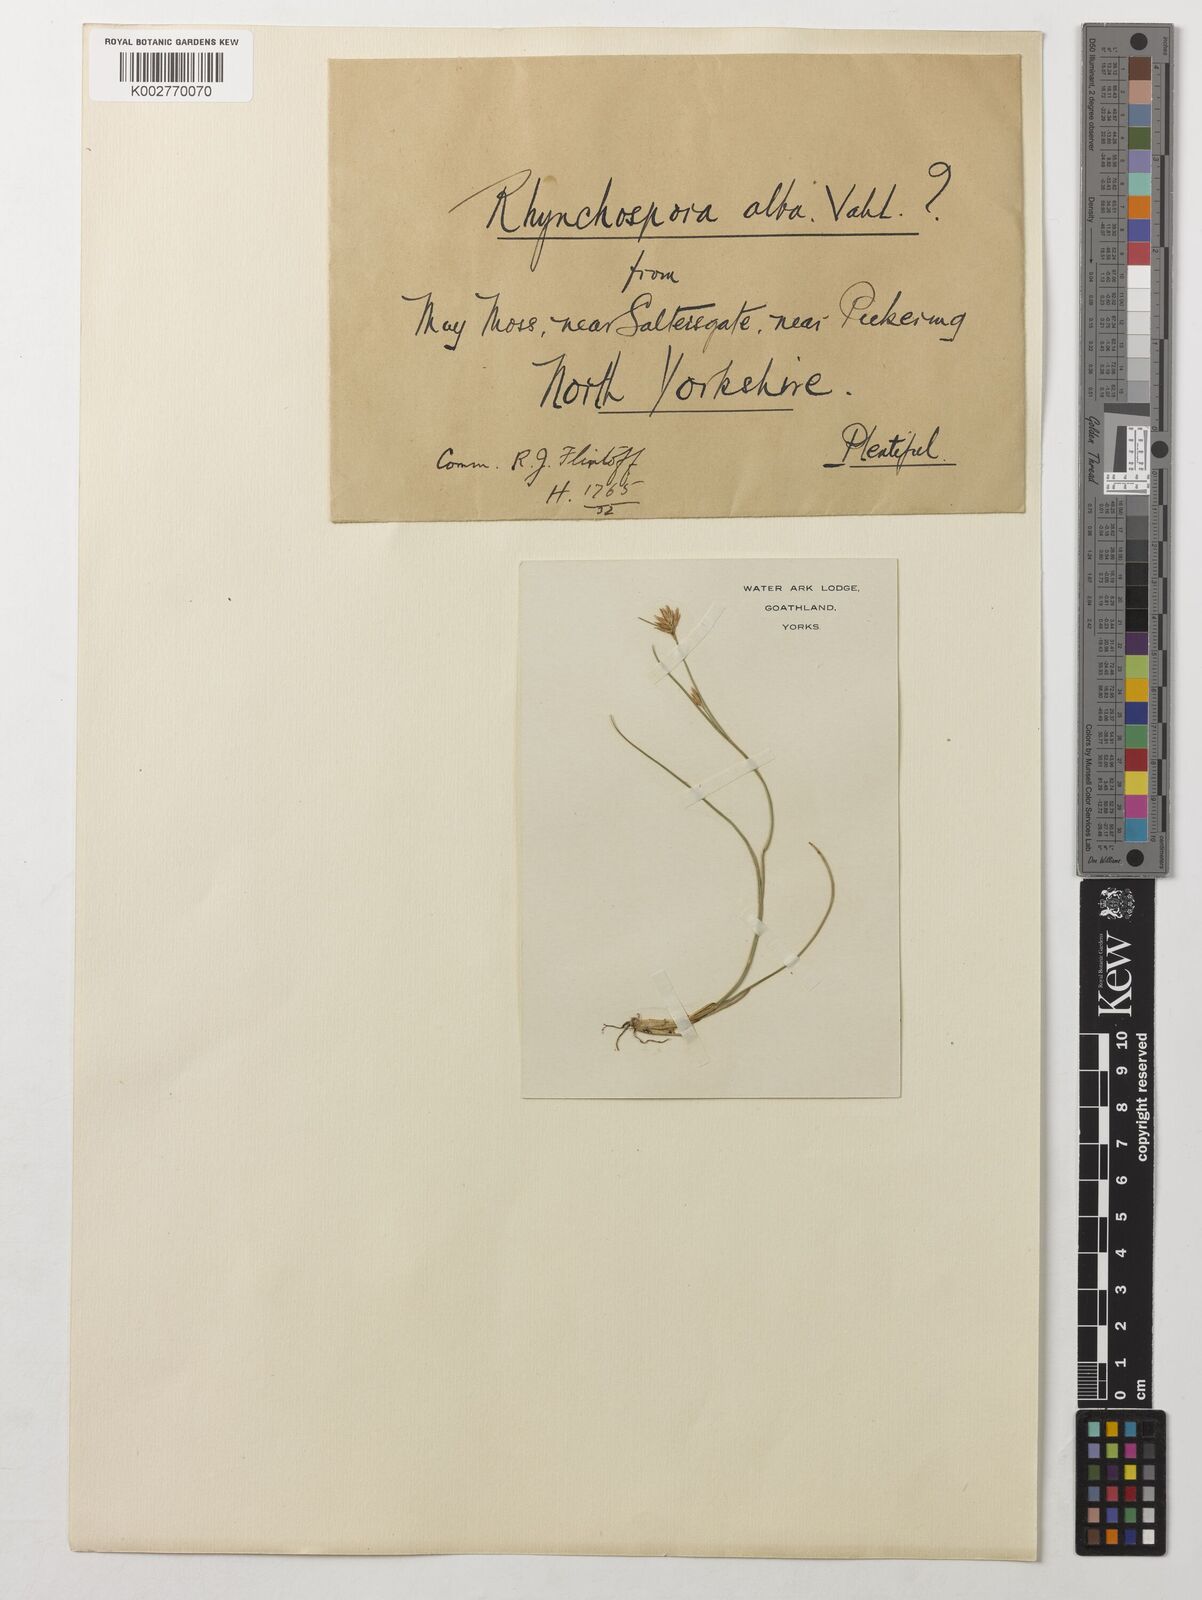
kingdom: Plantae
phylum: Tracheophyta
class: Liliopsida
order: Poales
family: Cyperaceae
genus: Rhynchospora
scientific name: Rhynchospora alba
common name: White beak-sedge
